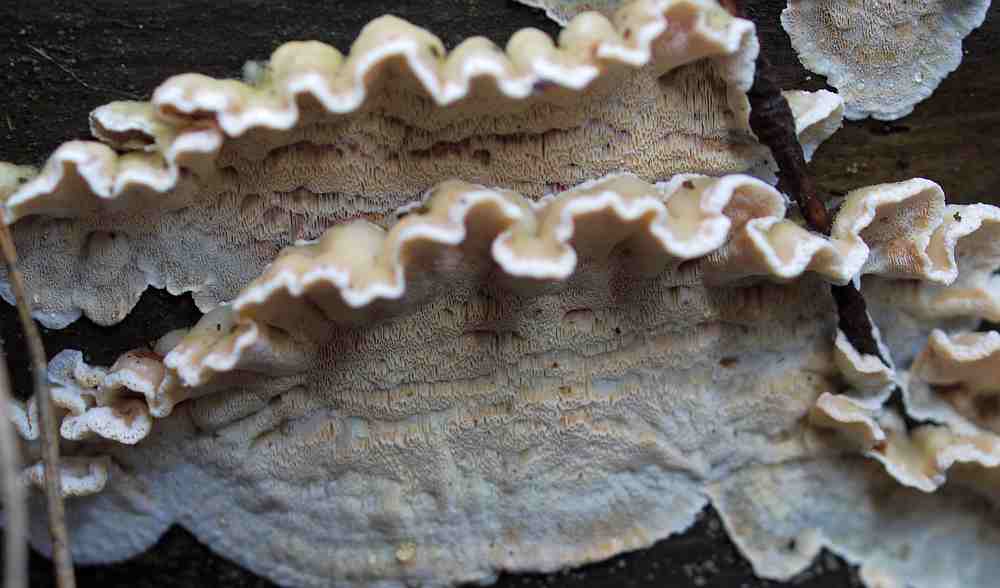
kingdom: Fungi
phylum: Basidiomycota
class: Agaricomycetes
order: Polyporales
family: Incrustoporiaceae
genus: Skeletocutis
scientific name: Skeletocutis amorpha
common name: orange krystalporesvamp
